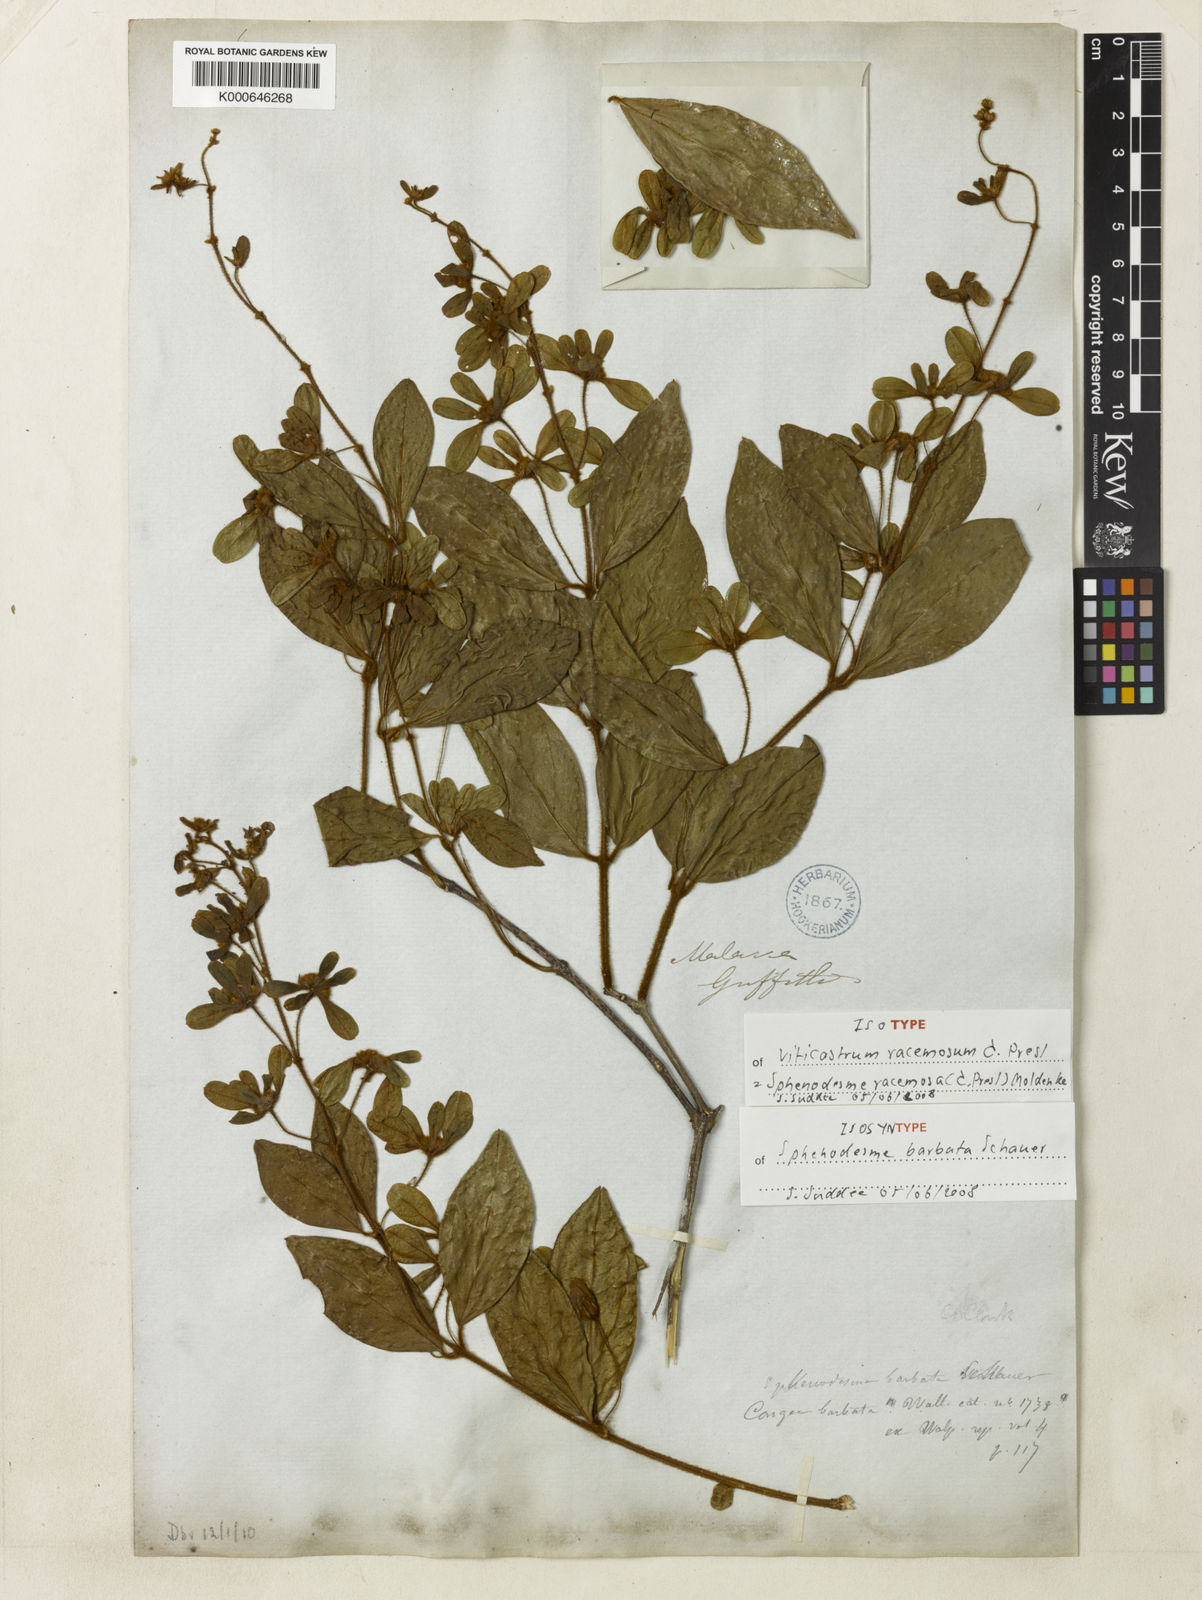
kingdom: Plantae
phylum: Tracheophyta
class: Magnoliopsida
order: Lamiales
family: Lamiaceae
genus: Sphenodesme
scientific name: Sphenodesme racemosa
